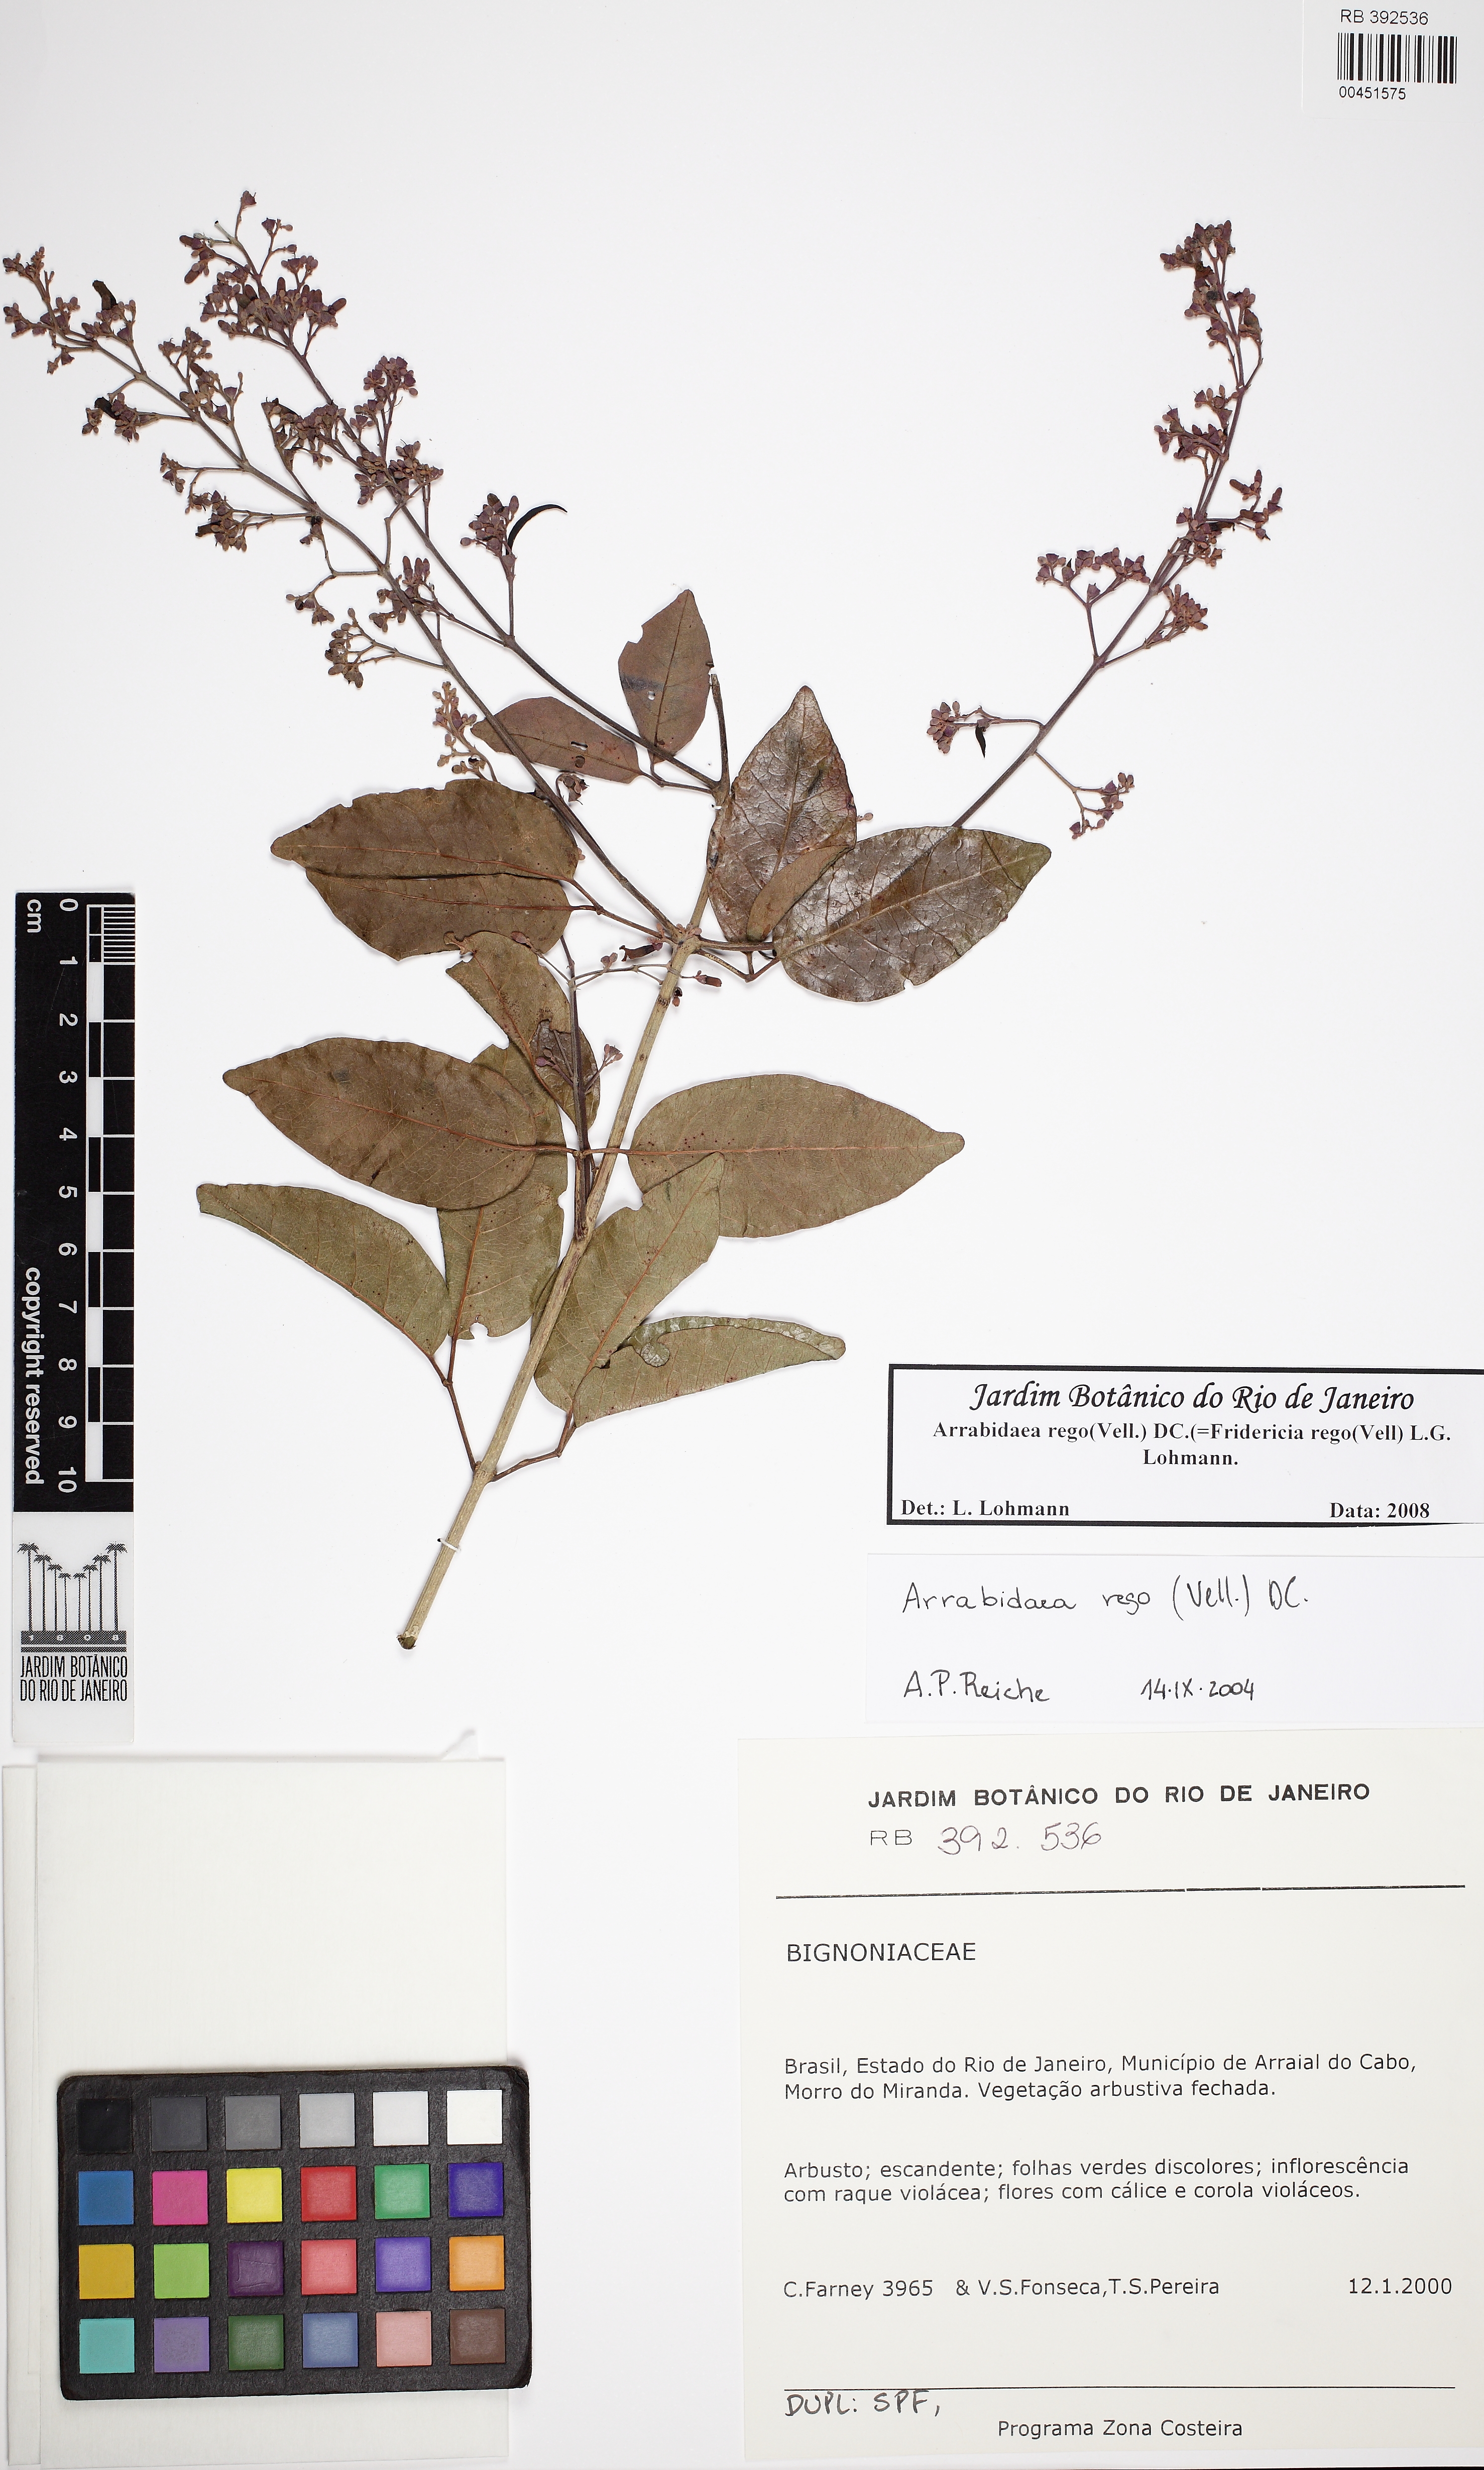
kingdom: Plantae
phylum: Tracheophyta
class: Magnoliopsida
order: Lamiales
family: Bignoniaceae
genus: Fridericia
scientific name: Fridericia rego
